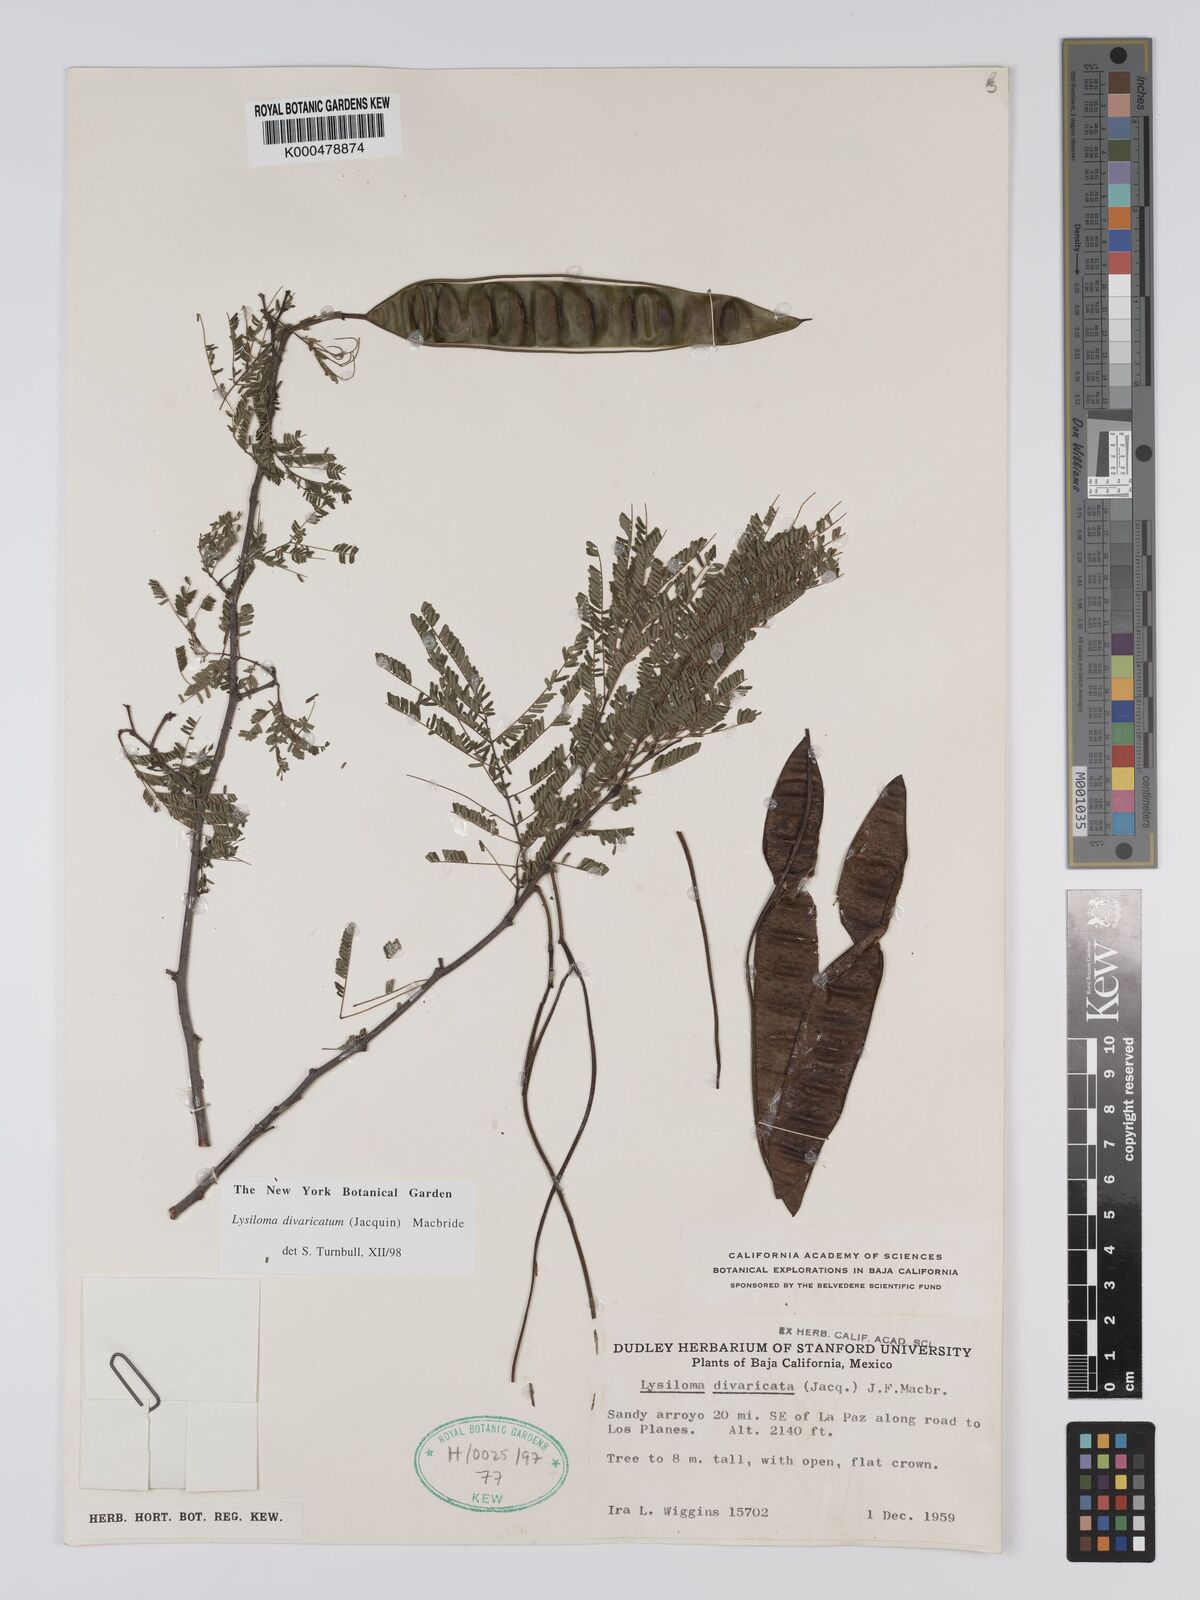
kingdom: Plantae
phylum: Tracheophyta
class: Magnoliopsida
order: Fabales
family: Fabaceae
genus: Lysiloma
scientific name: Lysiloma divaricatum
